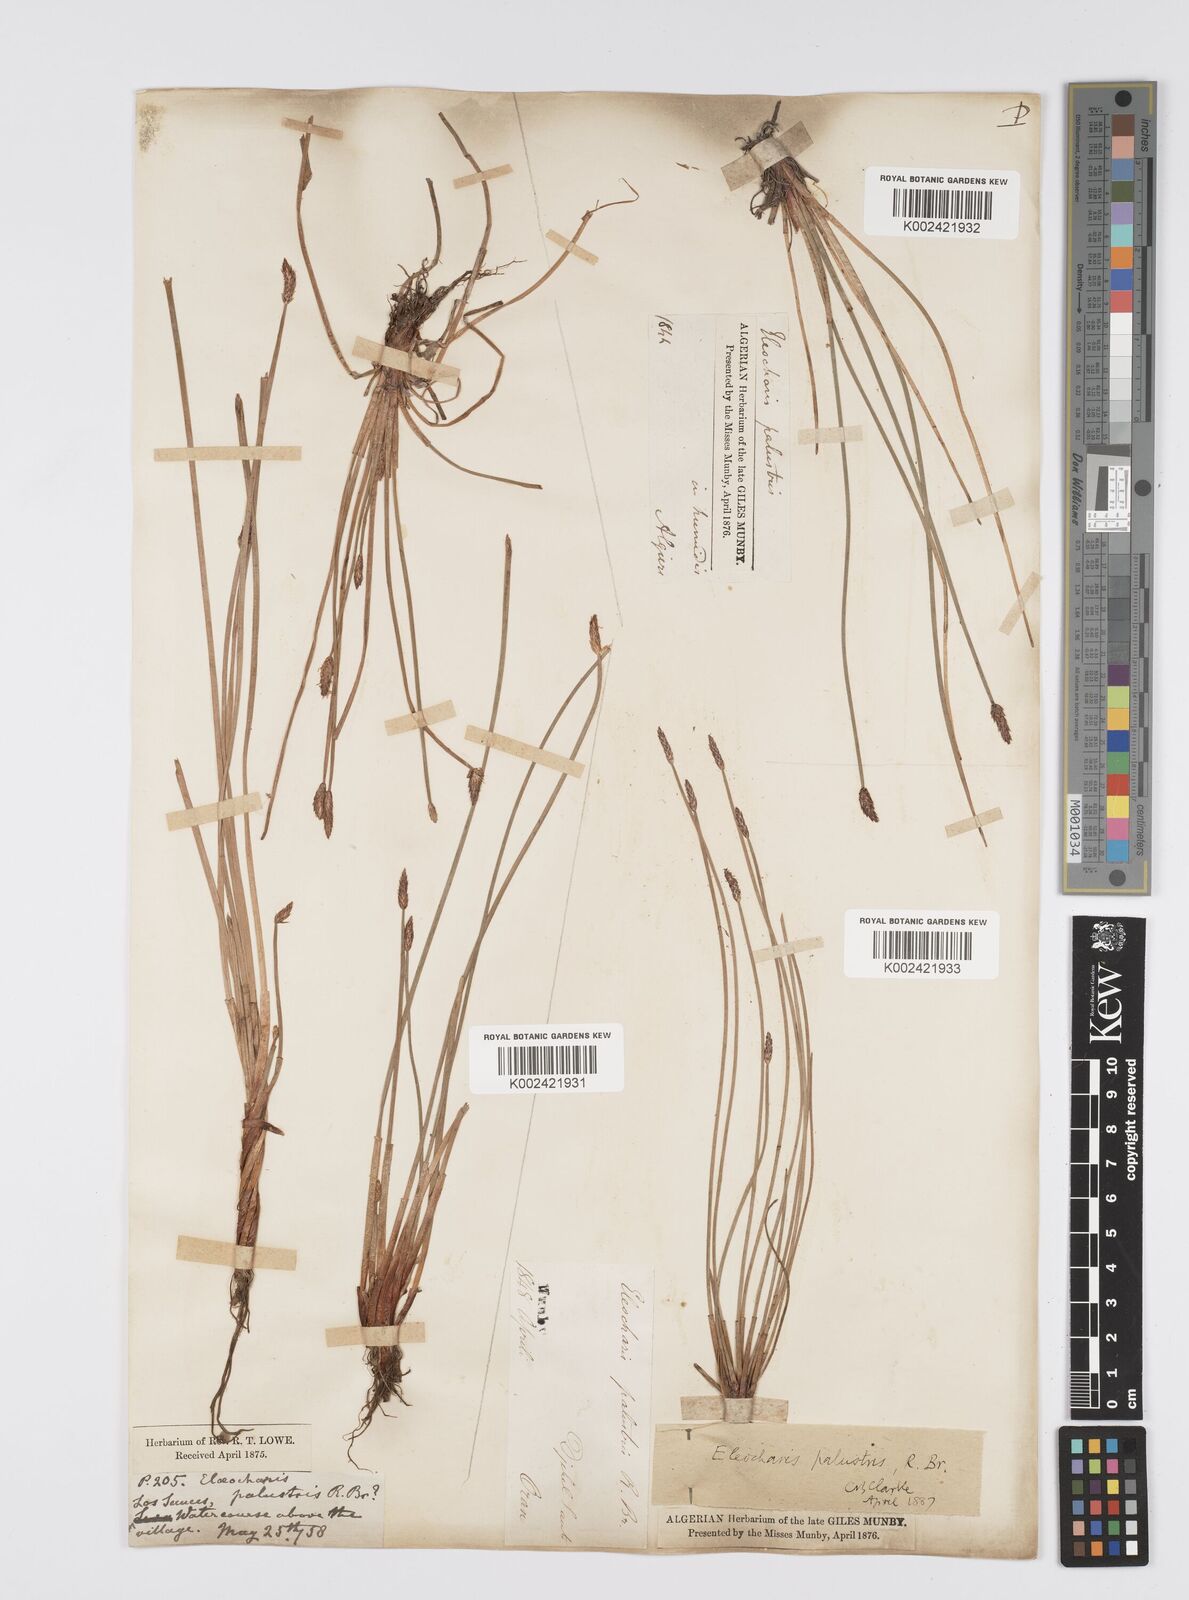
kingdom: Plantae
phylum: Tracheophyta
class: Liliopsida
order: Poales
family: Cyperaceae
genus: Eleocharis
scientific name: Eleocharis palustris
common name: Common spike-rush
